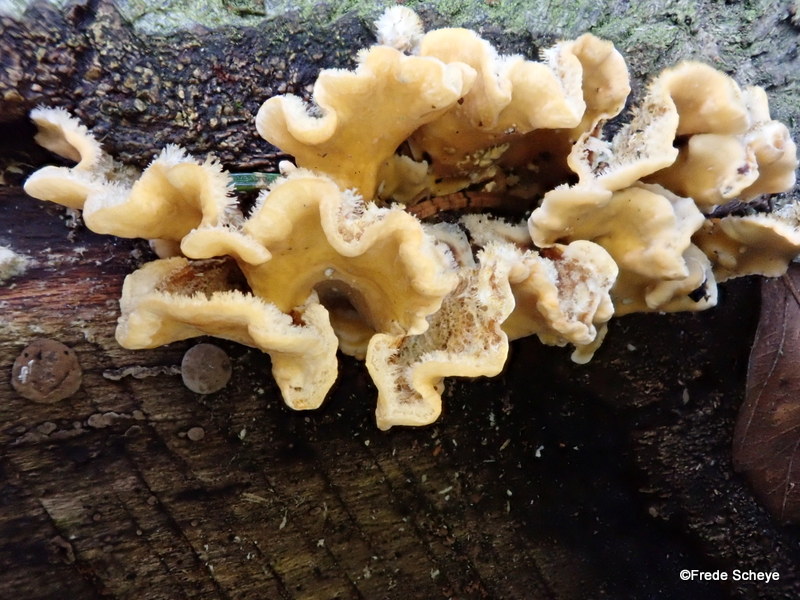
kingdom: Fungi
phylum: Basidiomycota
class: Agaricomycetes
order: Russulales
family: Stereaceae
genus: Stereum
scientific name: Stereum hirsutum
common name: håret lædersvamp
